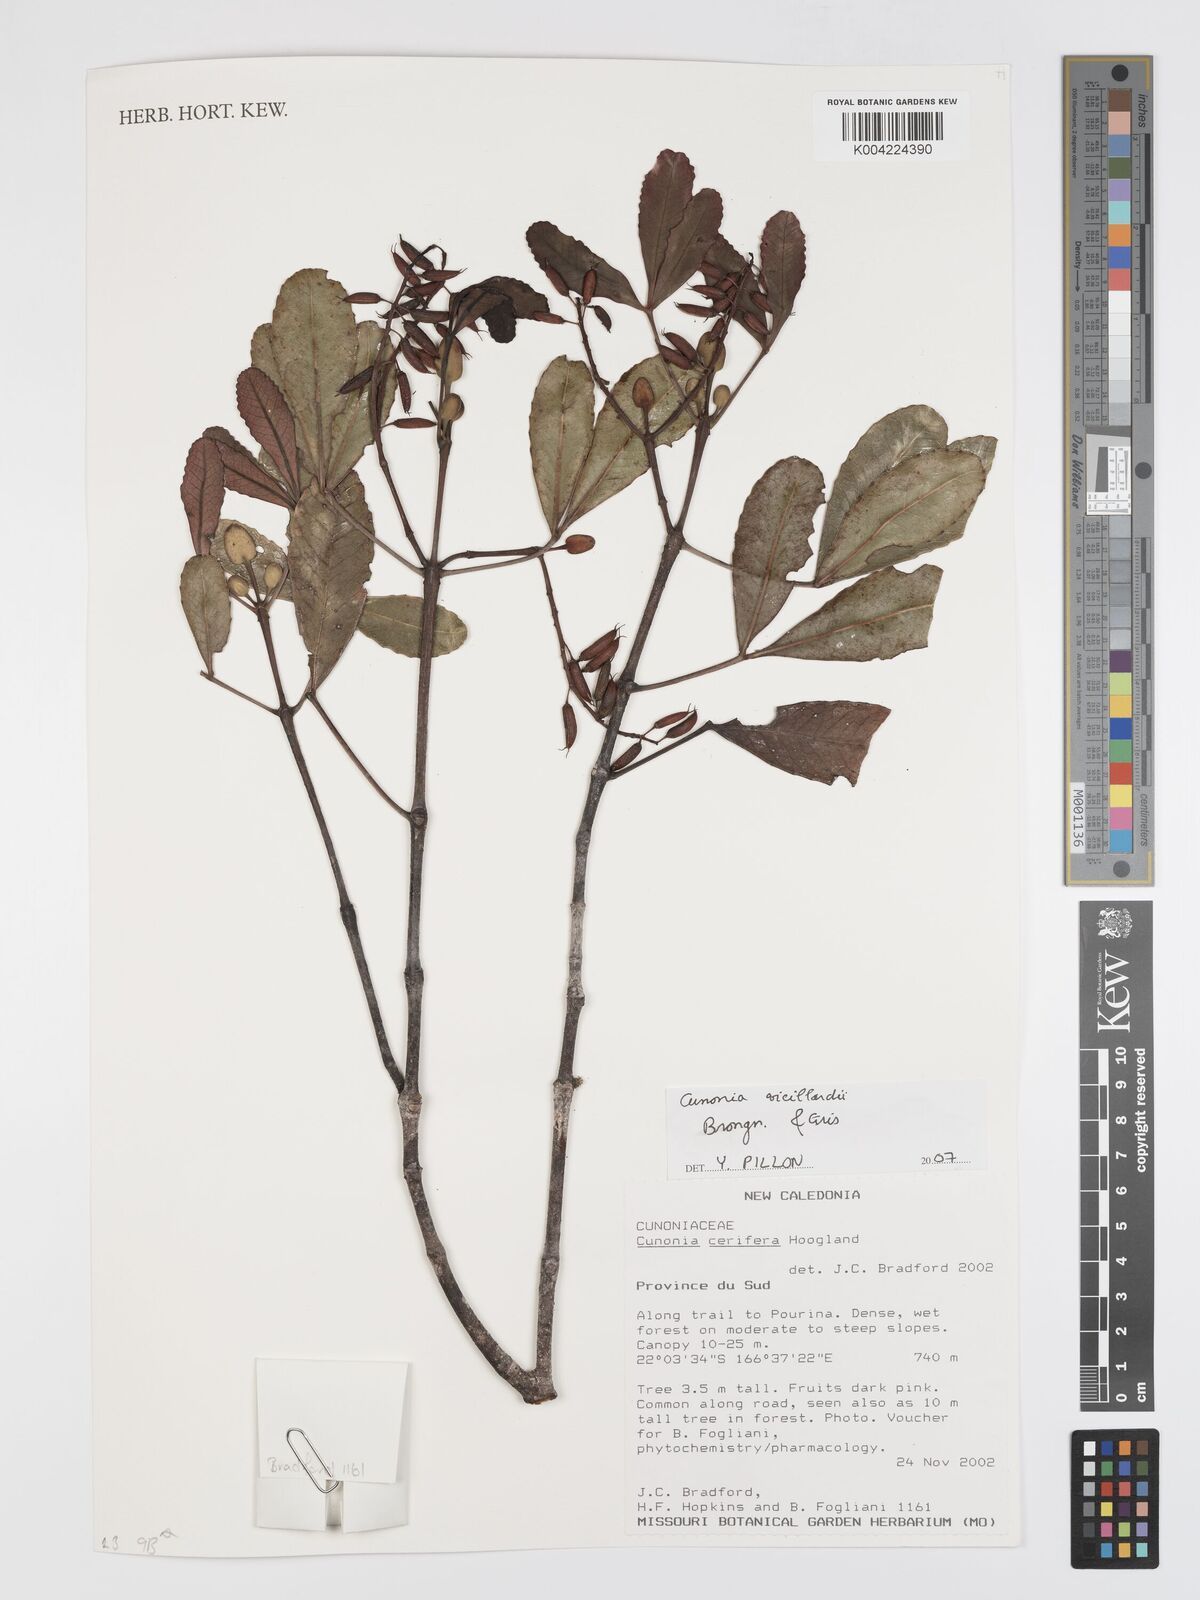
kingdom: Plantae
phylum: Tracheophyta
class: Magnoliopsida
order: Oxalidales
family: Cunoniaceae
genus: Cunonia
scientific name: Cunonia vieillardii
